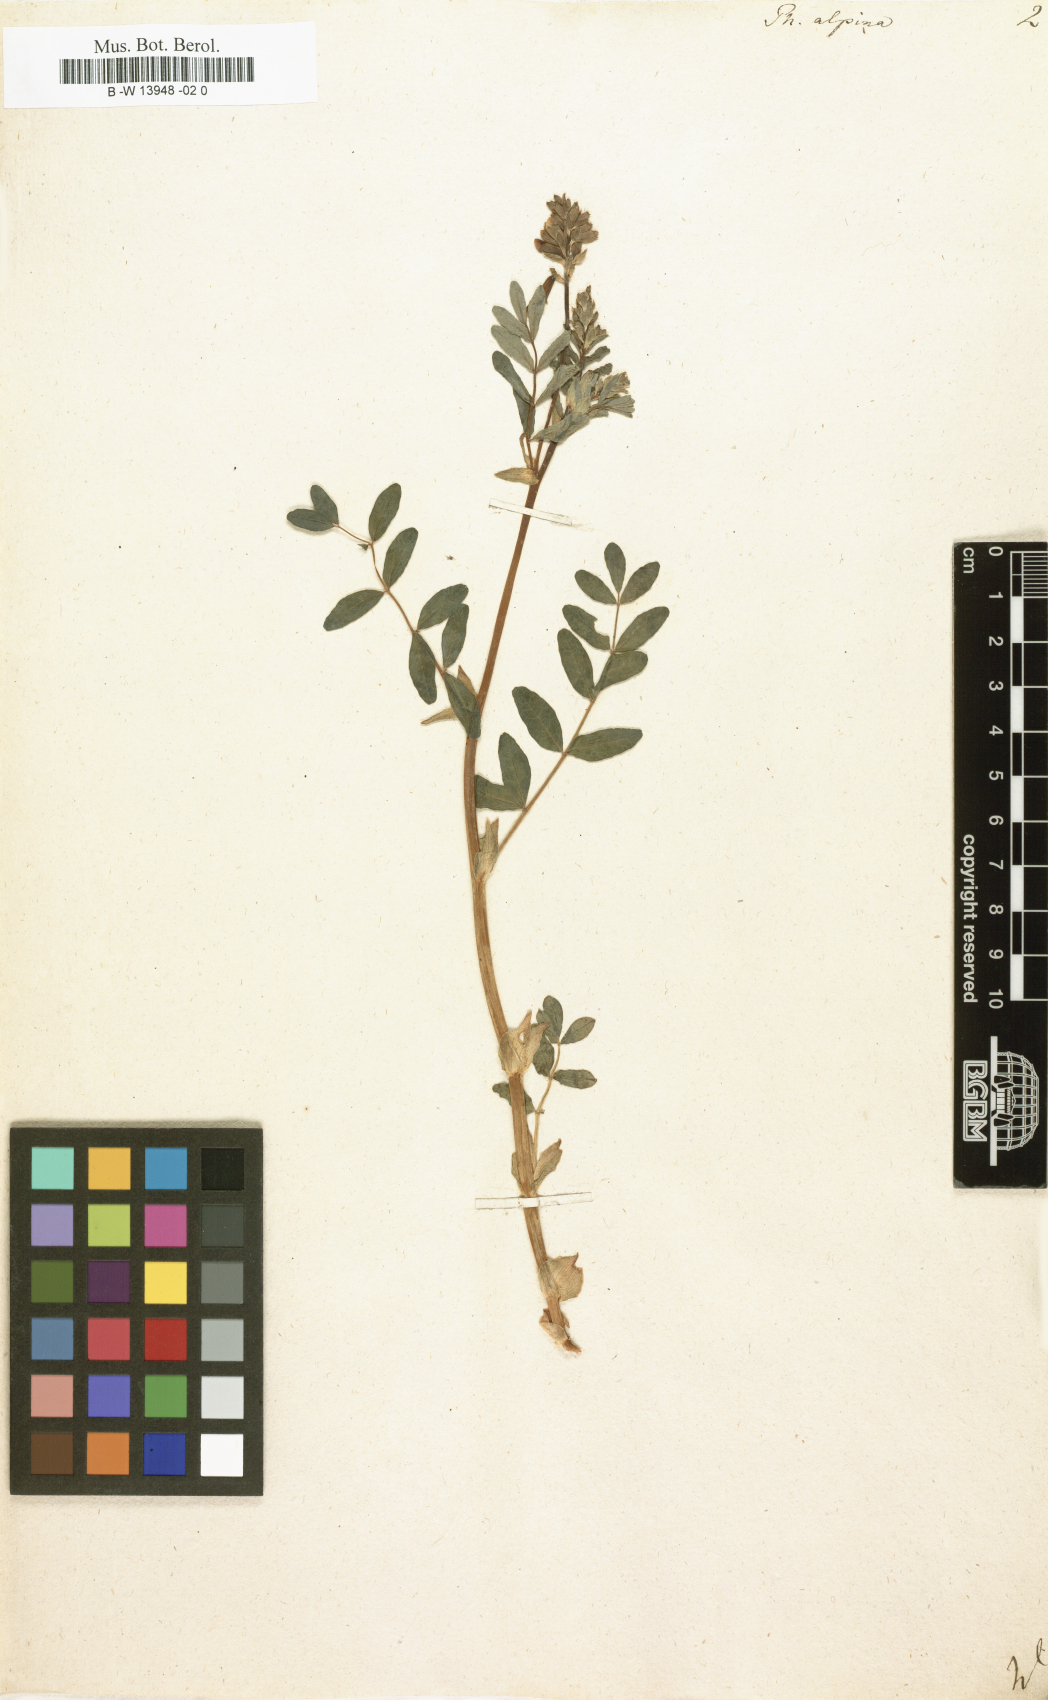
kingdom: Plantae
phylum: Tracheophyta
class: Magnoliopsida
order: Fabales
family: Fabaceae
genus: Astragalus
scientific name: Astragalus
